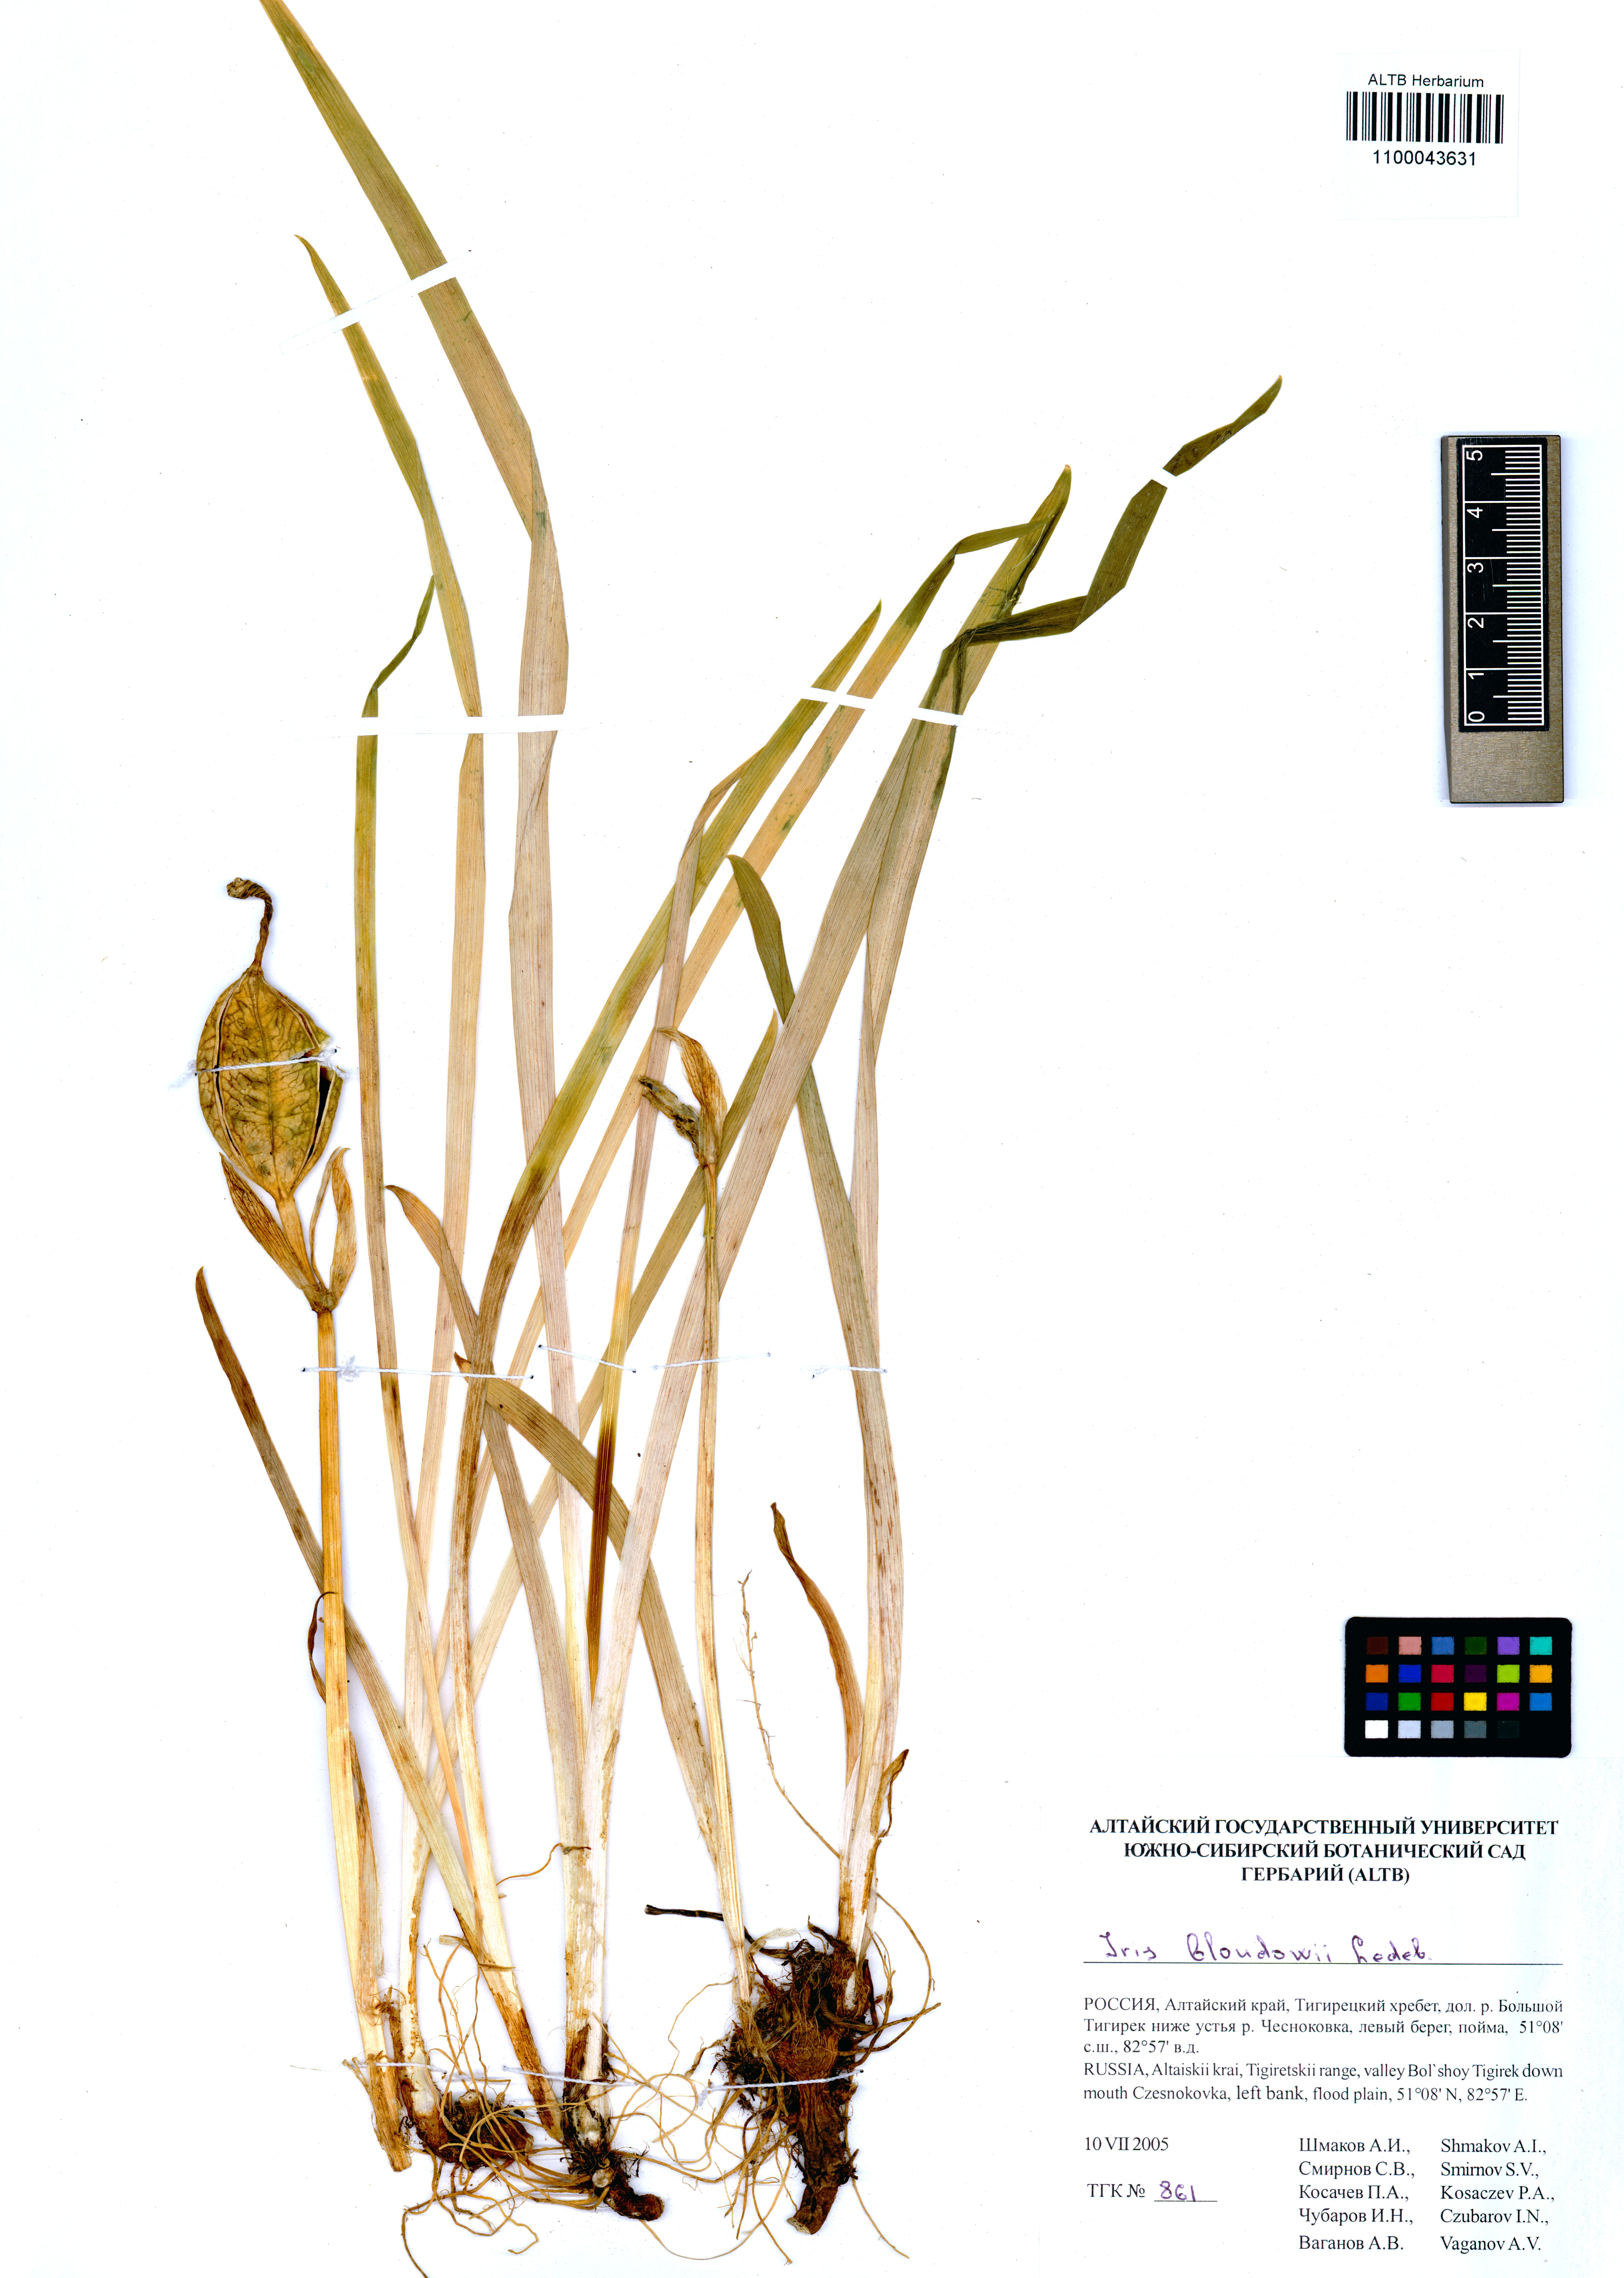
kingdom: Plantae
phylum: Tracheophyta
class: Liliopsida
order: Asparagales
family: Iridaceae
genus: Iris
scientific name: Iris bloudowii
